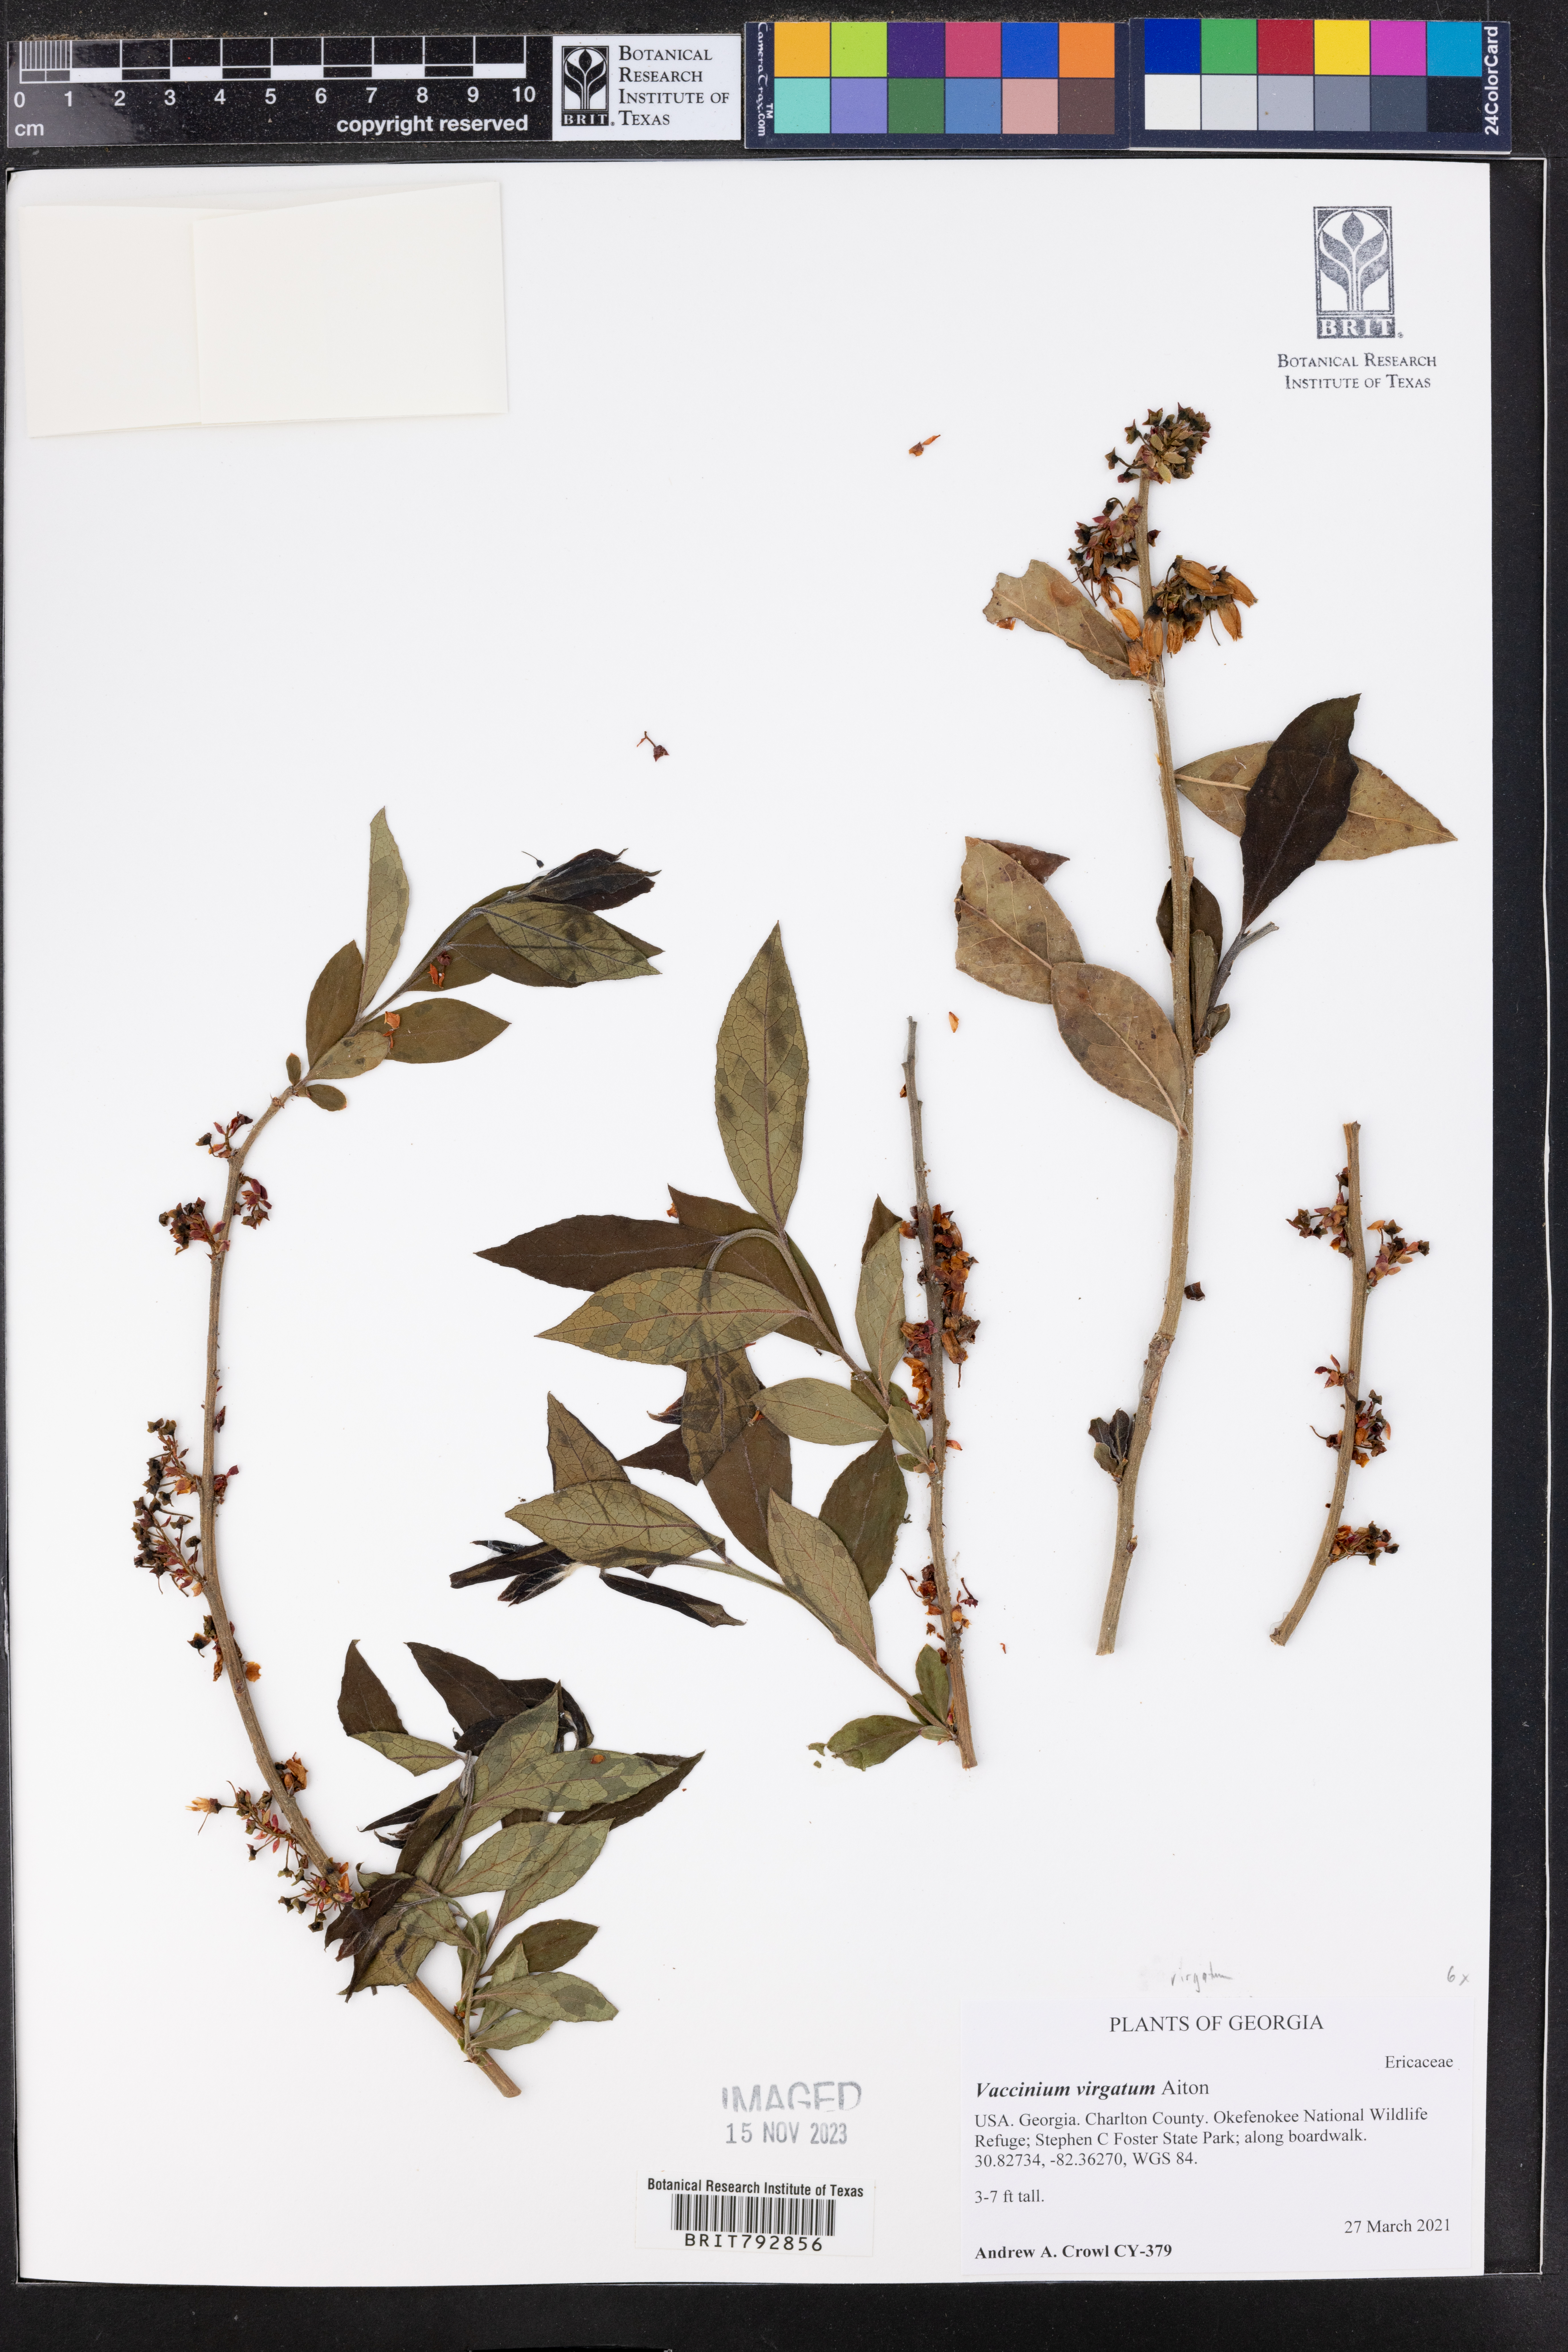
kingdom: Plantae
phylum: Tracheophyta
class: Magnoliopsida
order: Ericales
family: Ericaceae
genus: Vaccinium
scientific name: Vaccinium corymbosum
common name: Blueberry
